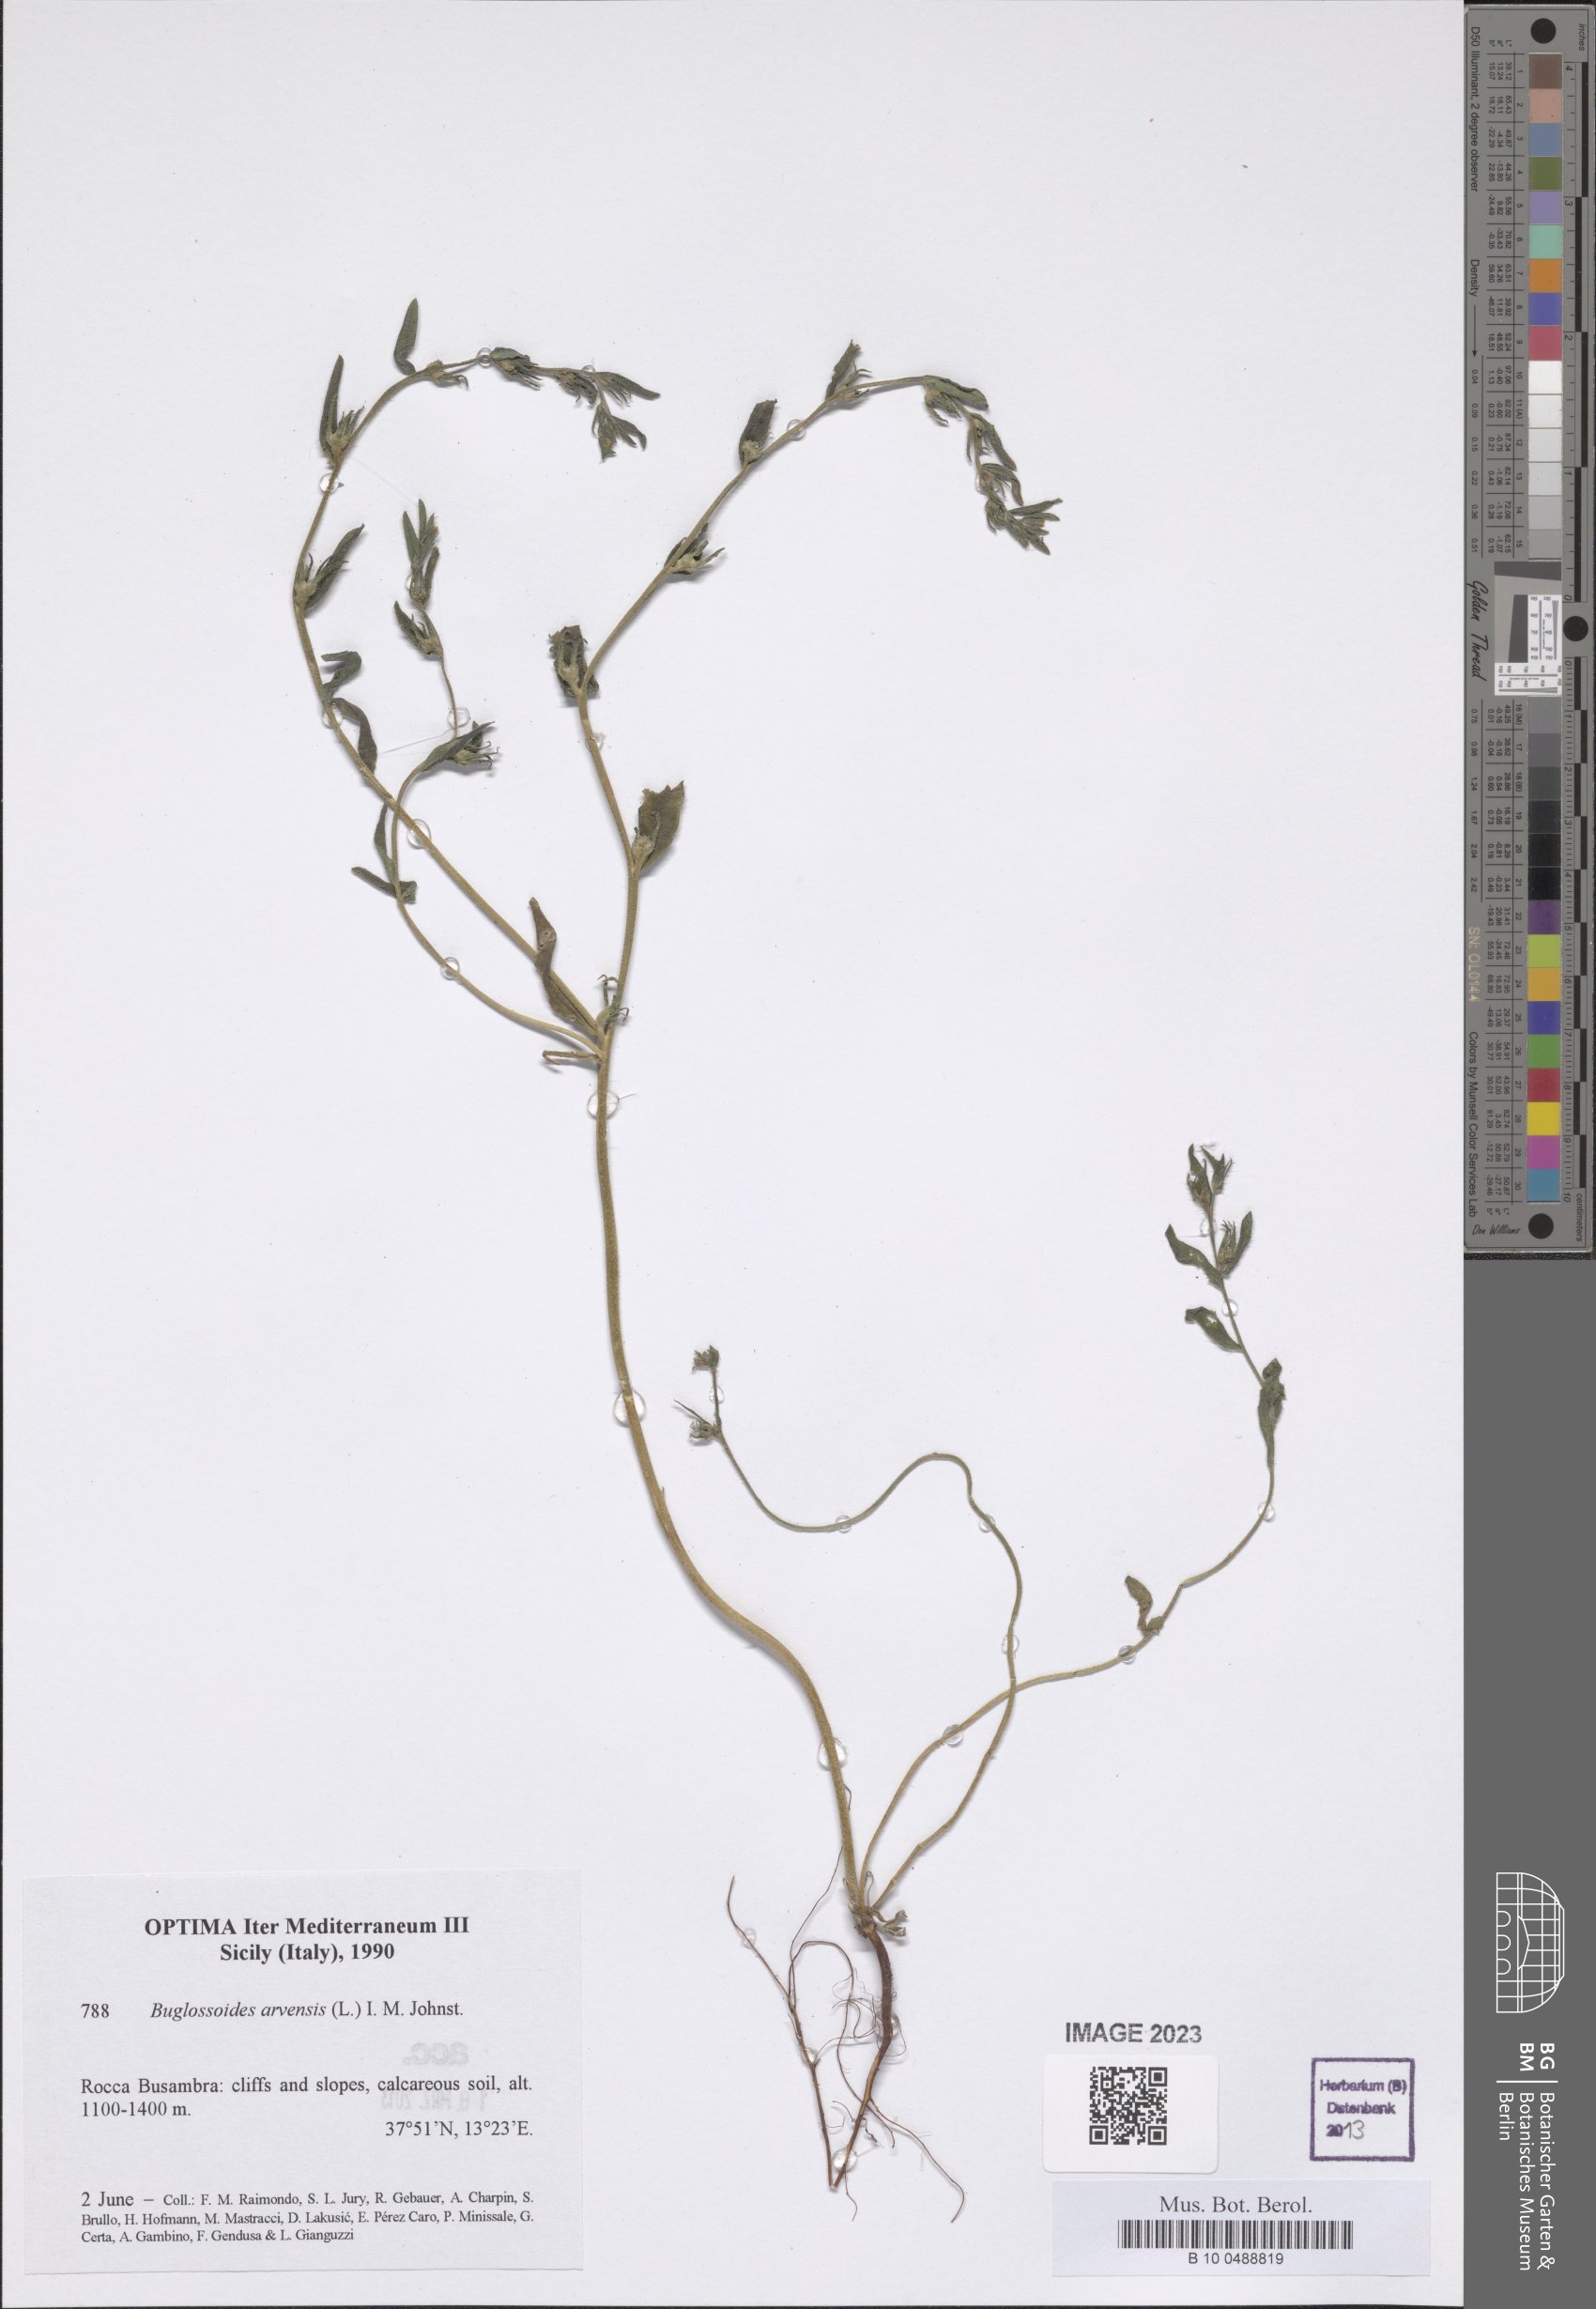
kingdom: Plantae
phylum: Tracheophyta
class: Magnoliopsida
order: Boraginales
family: Boraginaceae
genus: Buglossoides
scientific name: Buglossoides arvensis
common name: Corn gromwell
